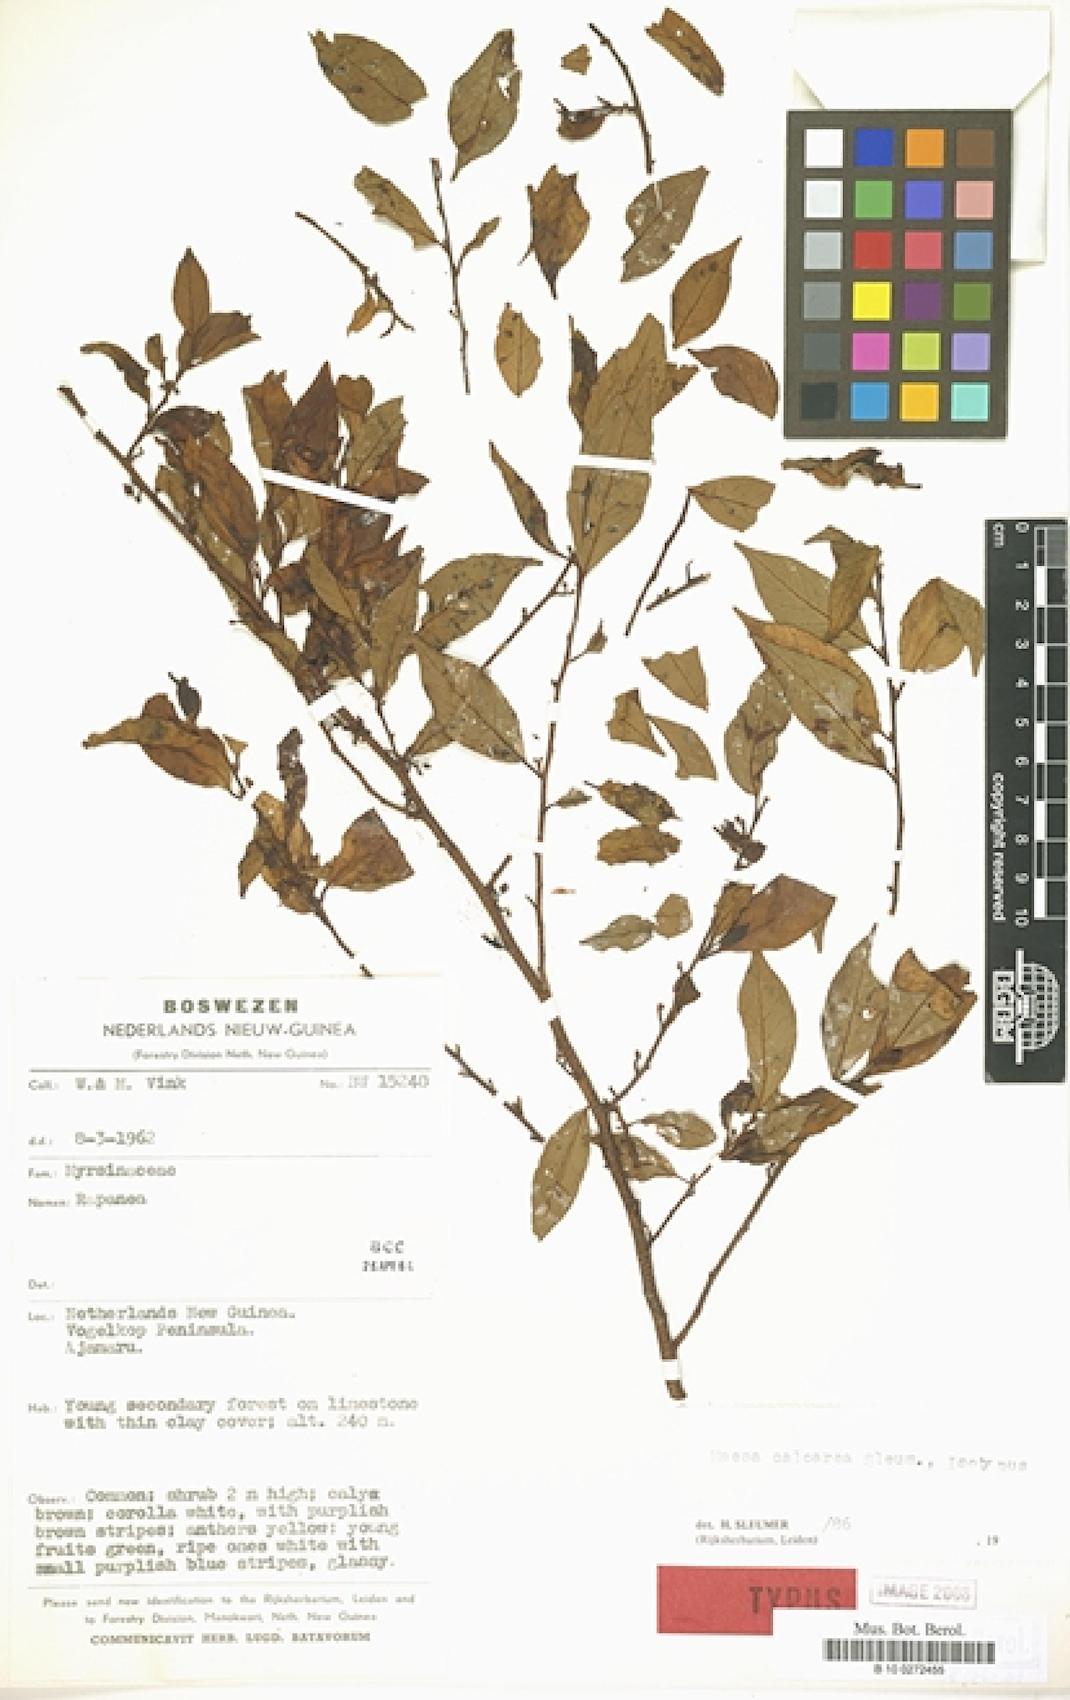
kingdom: Plantae
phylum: Tracheophyta
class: Magnoliopsida
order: Ericales
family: Primulaceae
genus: Maesa
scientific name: Maesa calcarea
